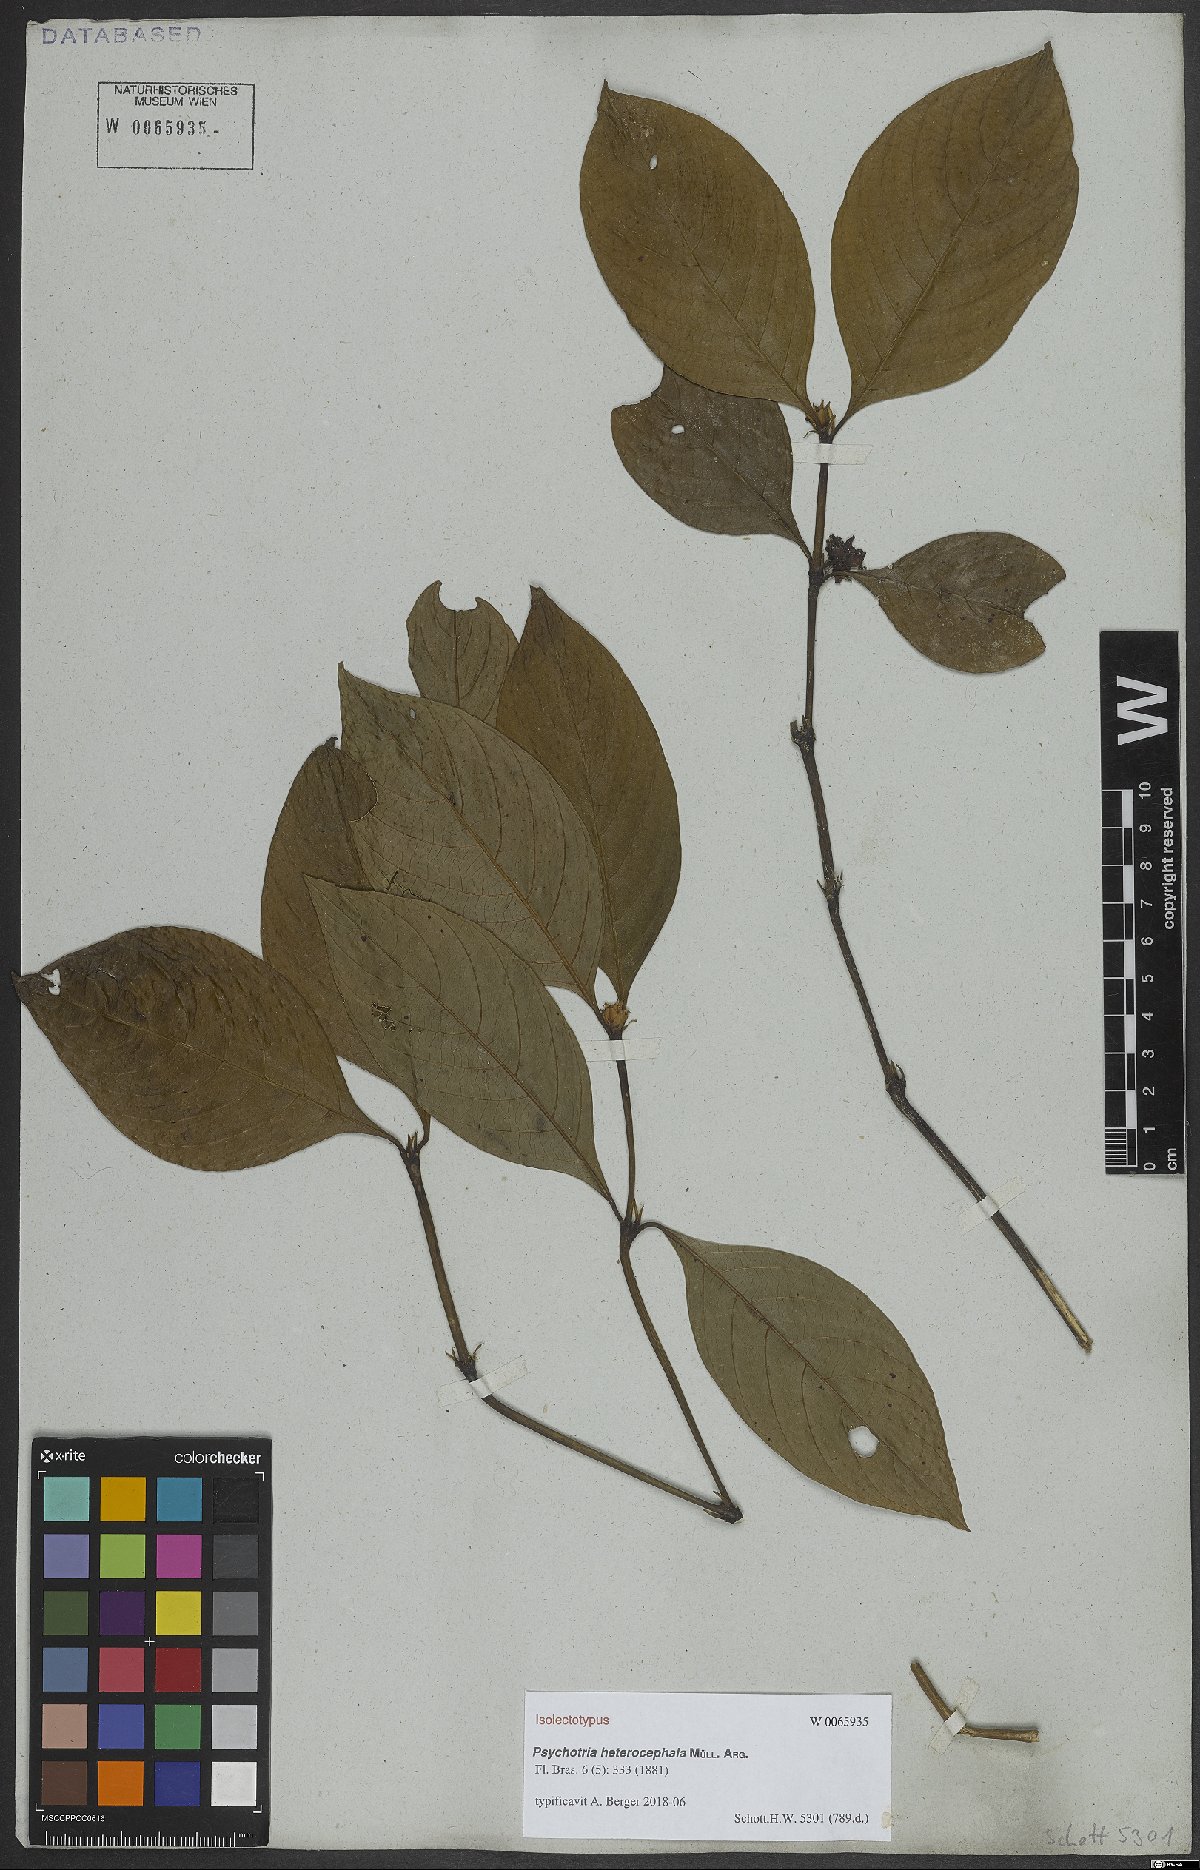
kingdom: Plantae
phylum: Tracheophyta
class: Magnoliopsida
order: Gentianales
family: Rubiaceae
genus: Palicourea
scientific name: Palicourea hoffmannseggiana
